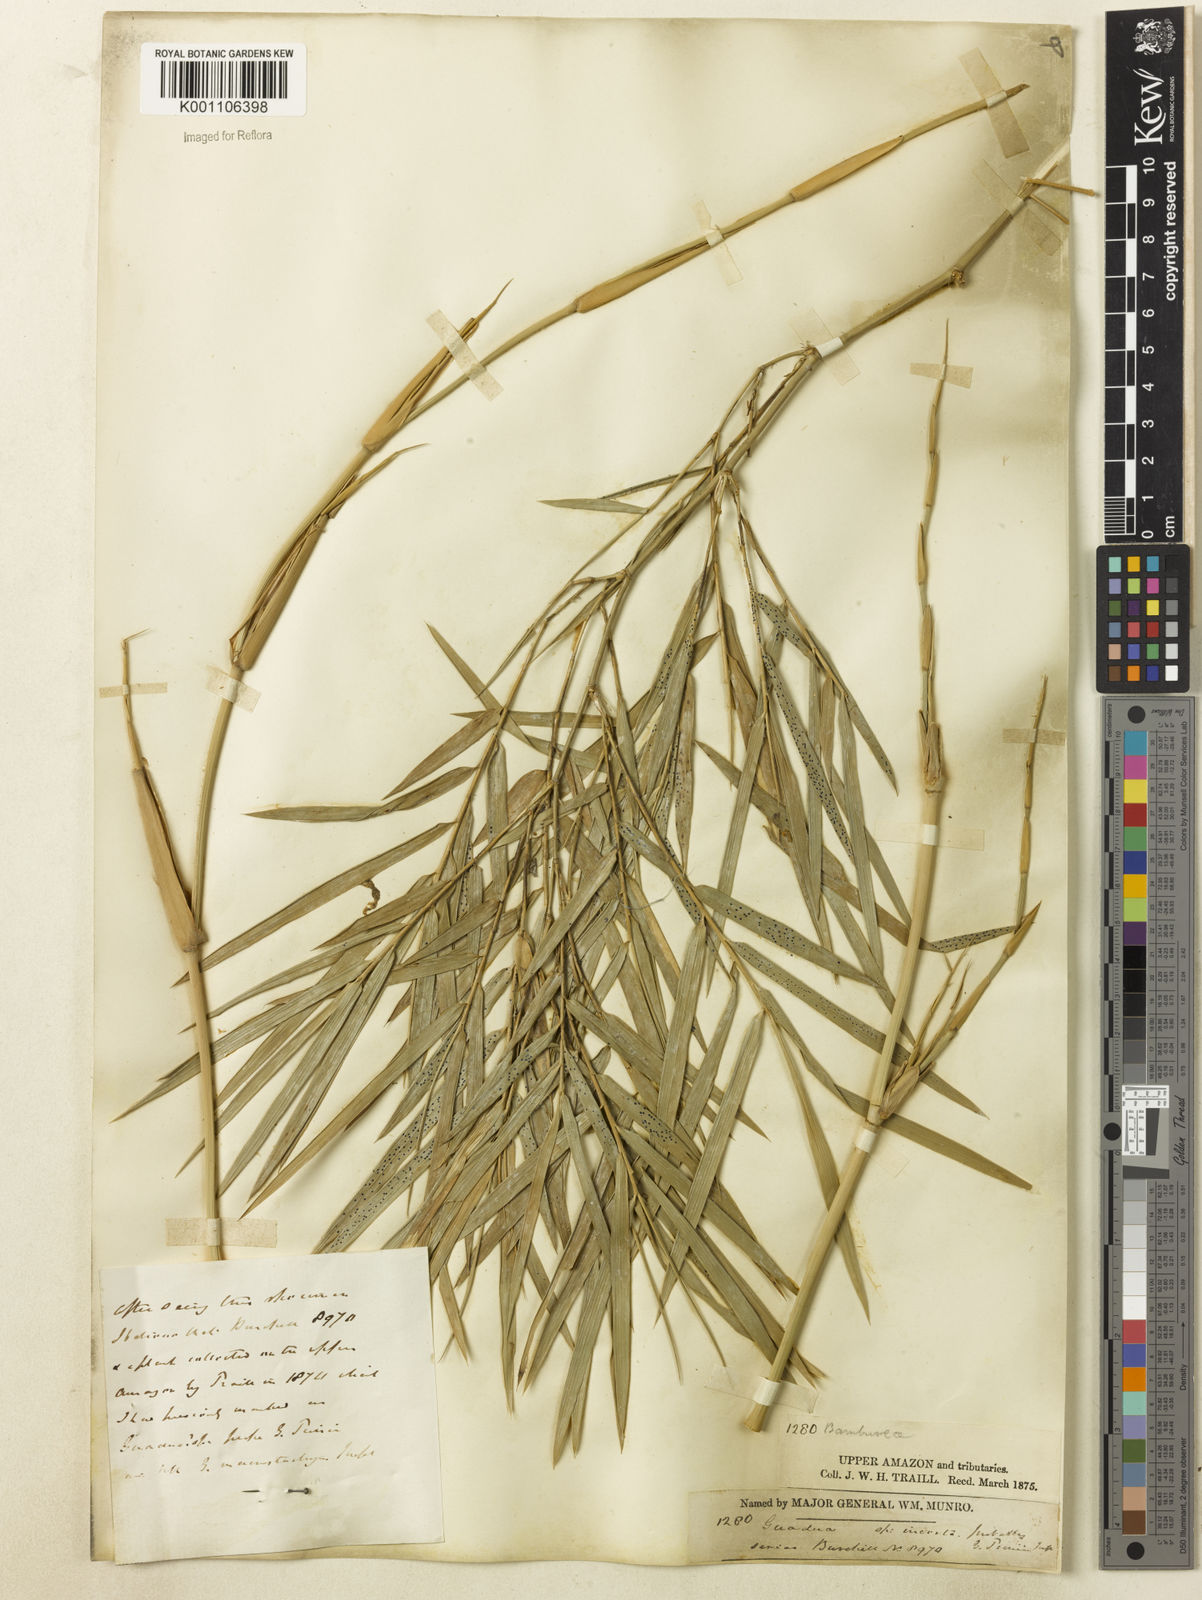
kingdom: Plantae
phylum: Tracheophyta
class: Liliopsida
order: Poales
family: Poaceae
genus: Guadua
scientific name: Guadua
